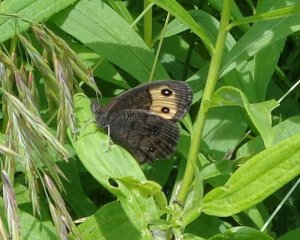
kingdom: Animalia
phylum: Arthropoda
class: Insecta
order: Lepidoptera
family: Nymphalidae
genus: Cercyonis
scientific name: Cercyonis pegala
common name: Common Wood-Nymph
